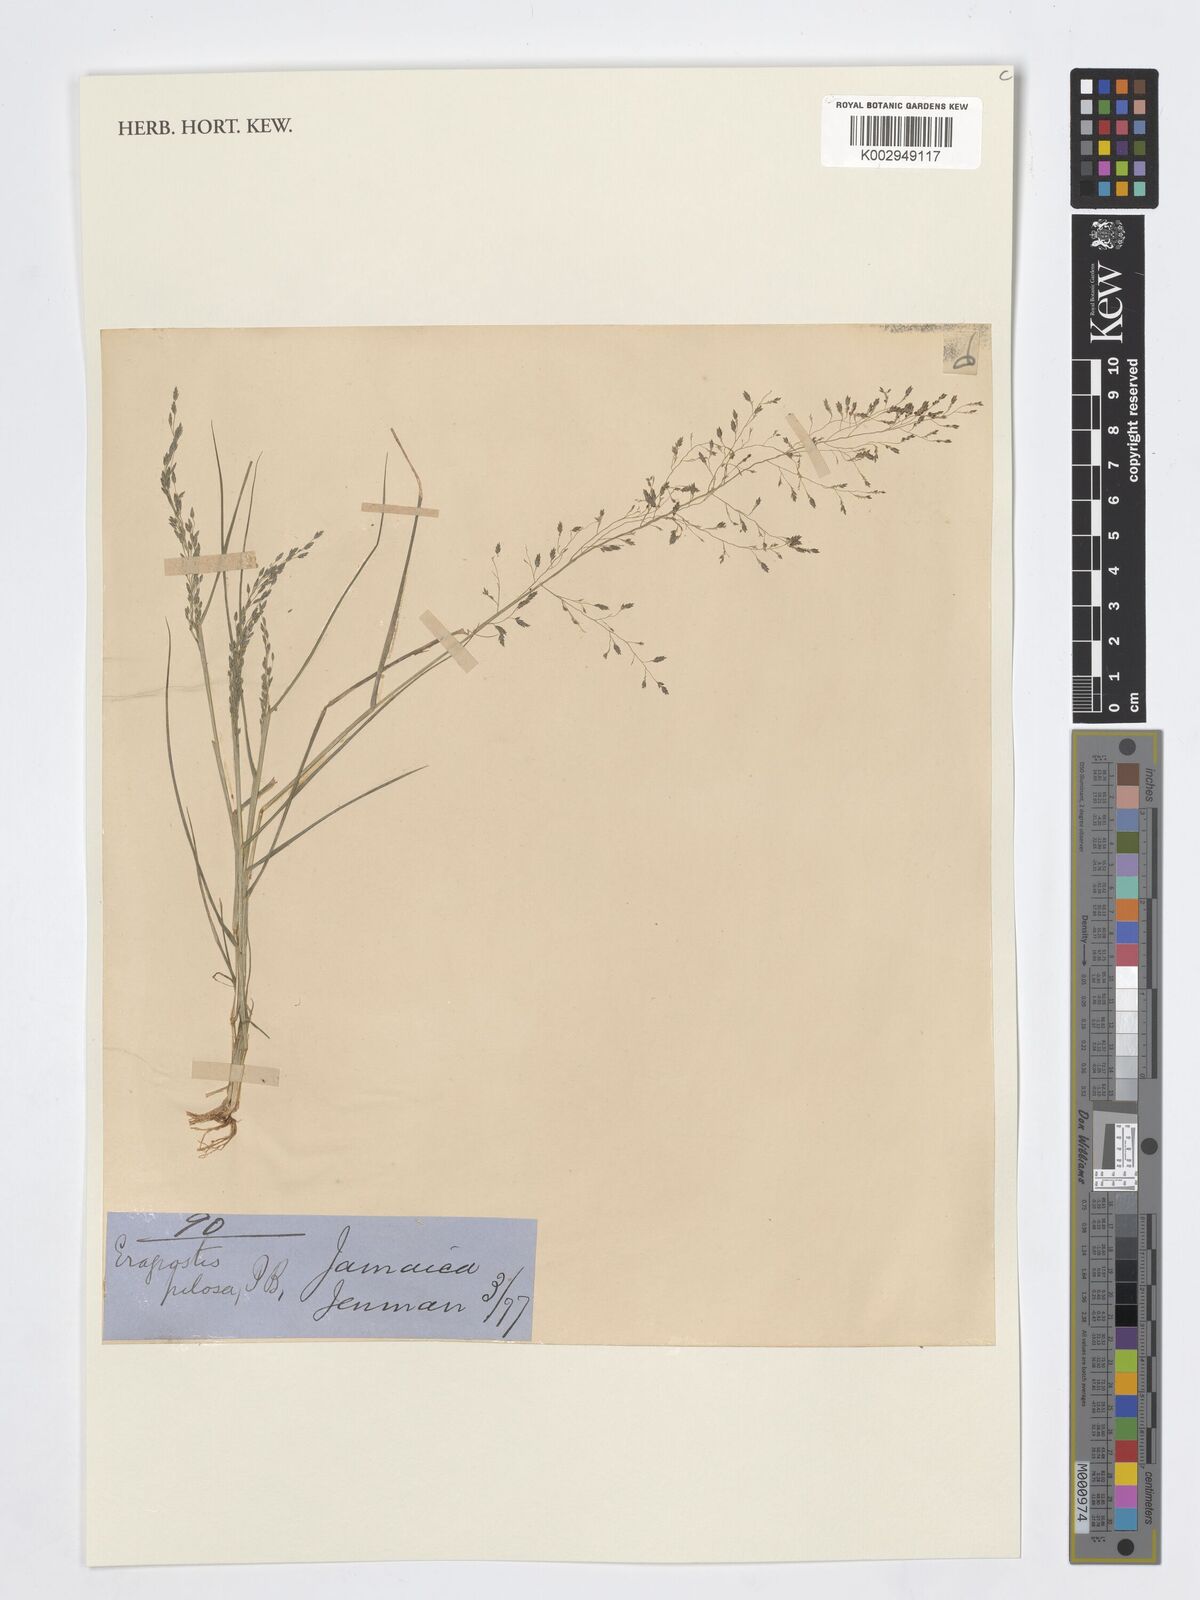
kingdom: Plantae
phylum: Tracheophyta
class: Liliopsida
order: Poales
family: Poaceae
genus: Eragrostis
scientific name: Eragrostis pilosa
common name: Indian lovegrass
